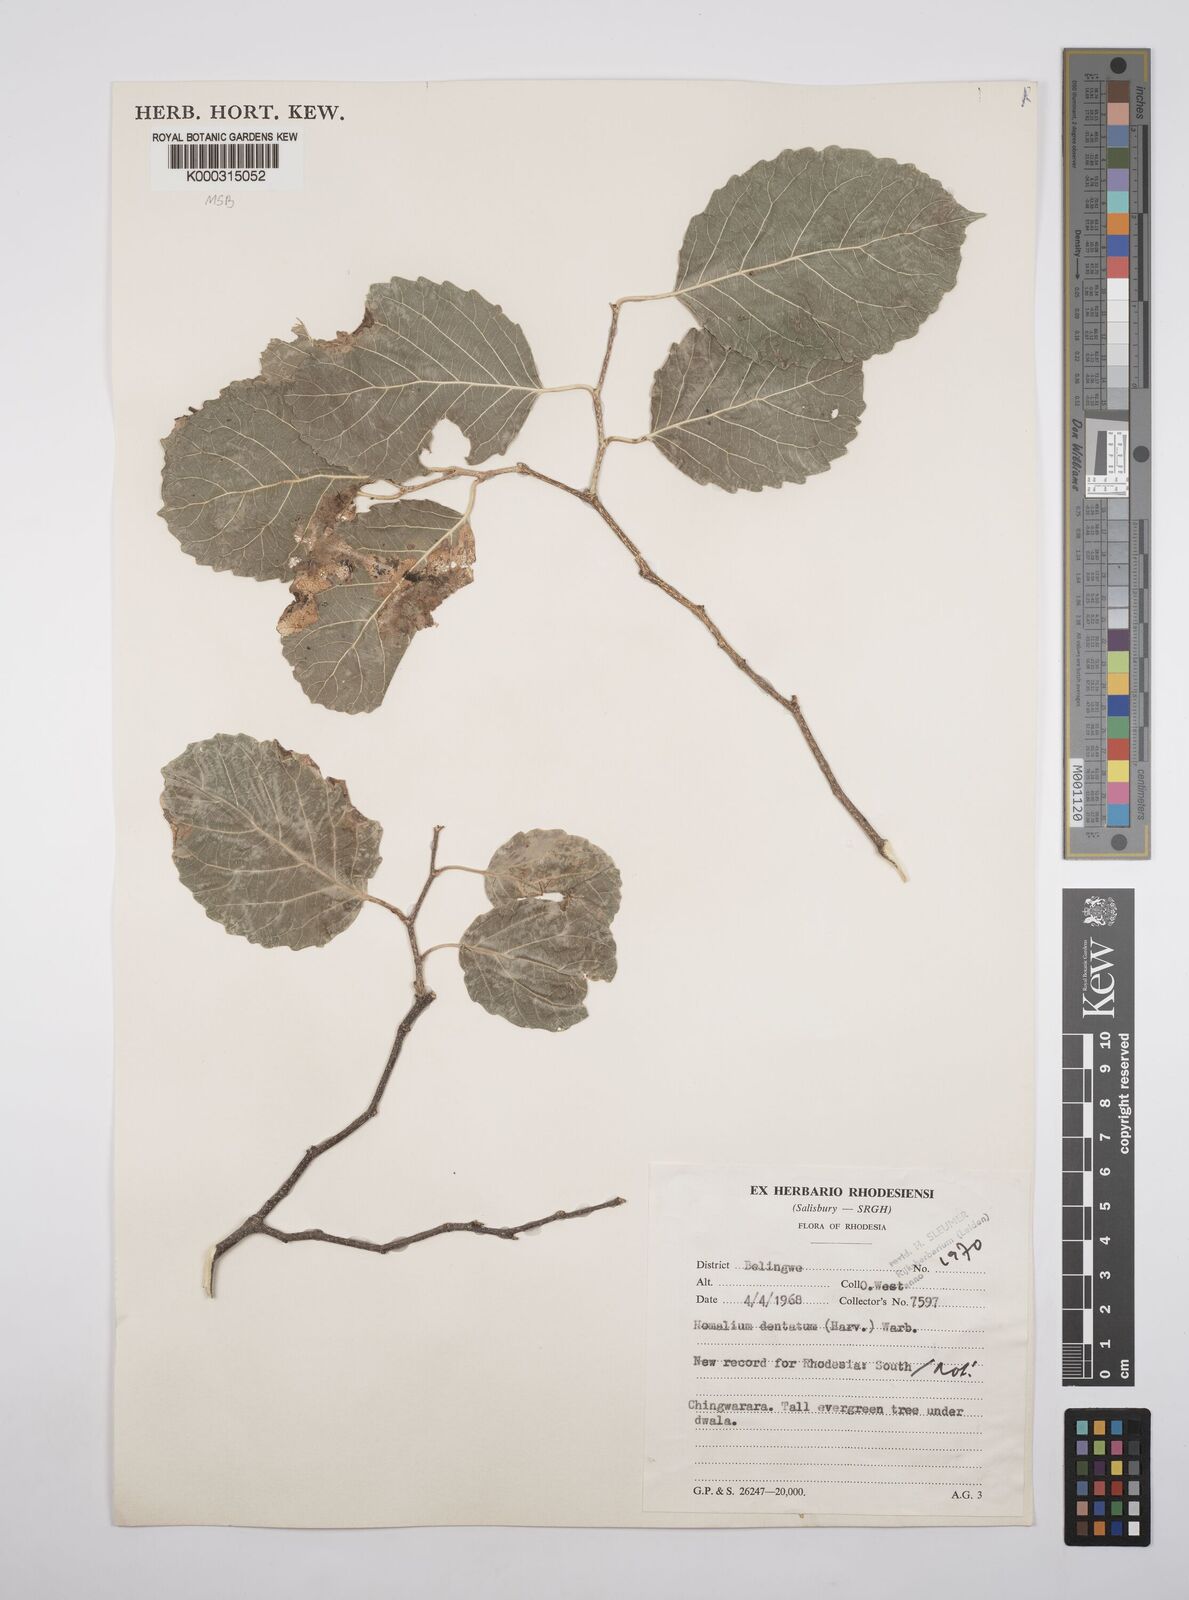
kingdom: Plantae
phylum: Tracheophyta
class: Magnoliopsida
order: Malpighiales
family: Salicaceae
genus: Homalium
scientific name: Homalium dentatum
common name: Brown ironwood
